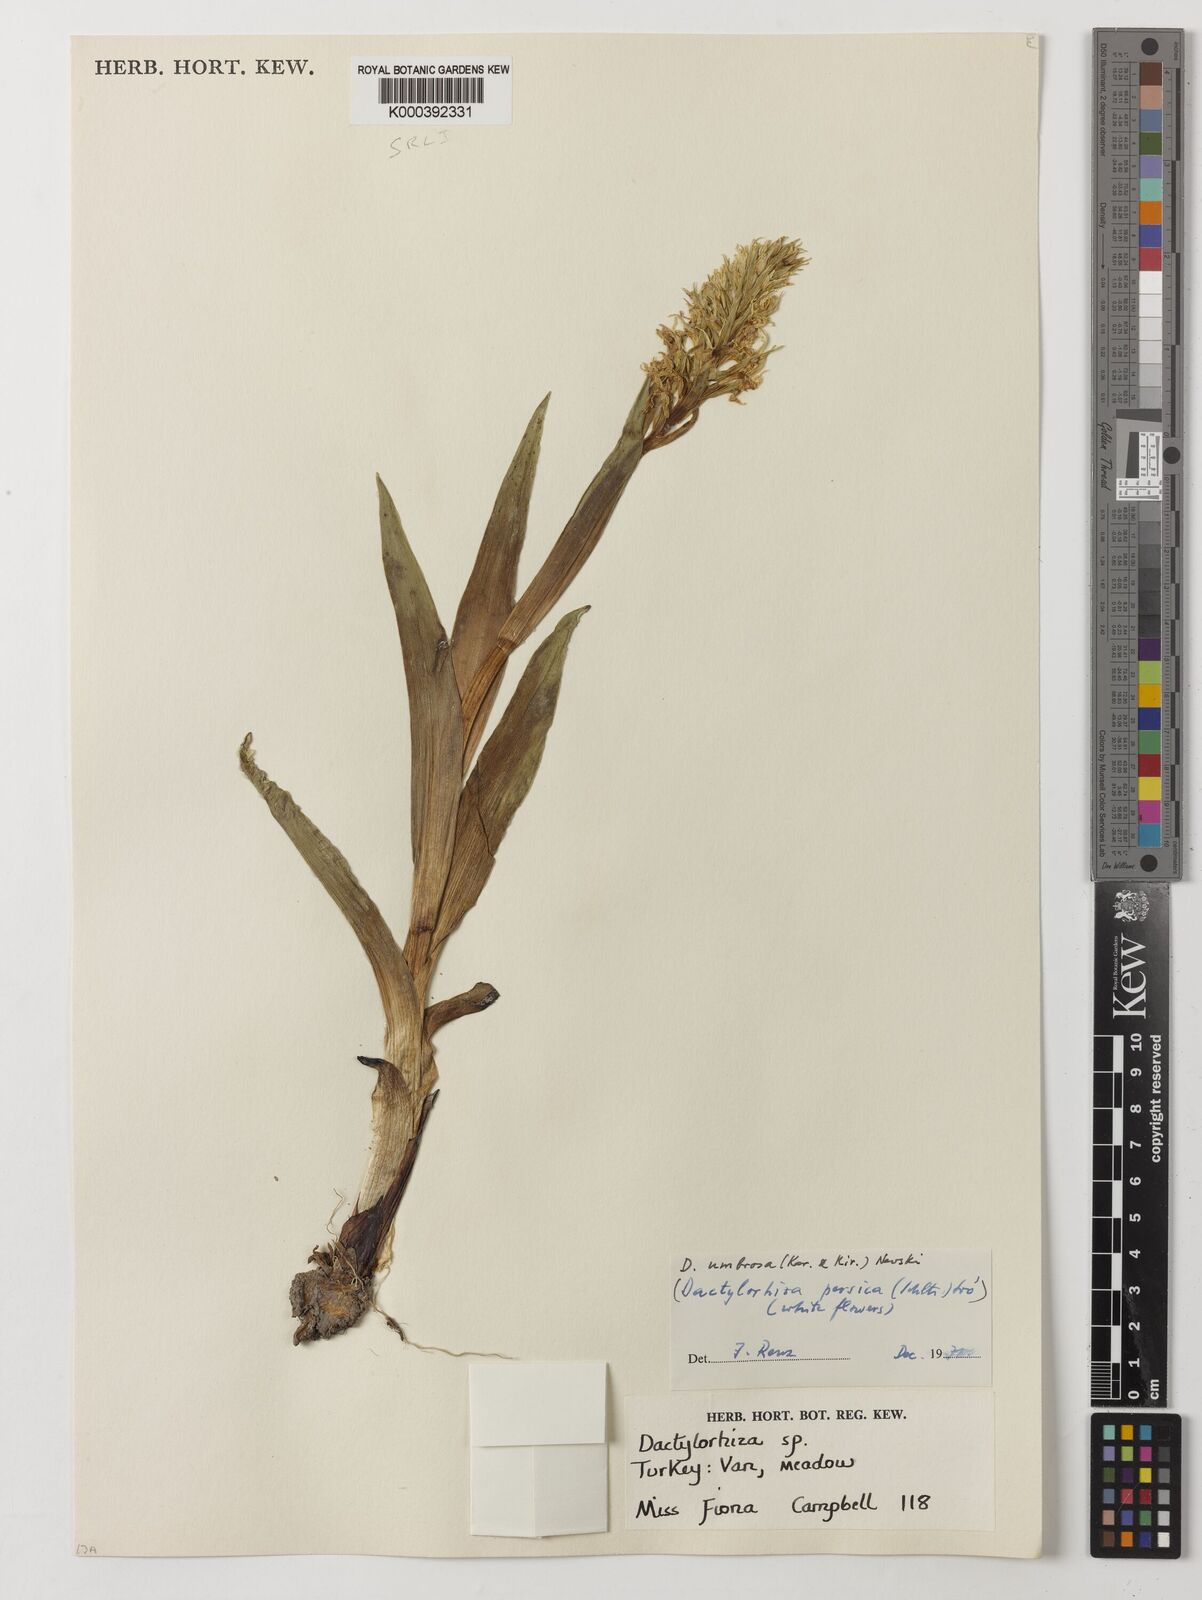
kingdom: Plantae
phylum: Tracheophyta
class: Liliopsida
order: Asparagales
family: Orchidaceae
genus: Dactylorhiza
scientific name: Dactylorhiza
